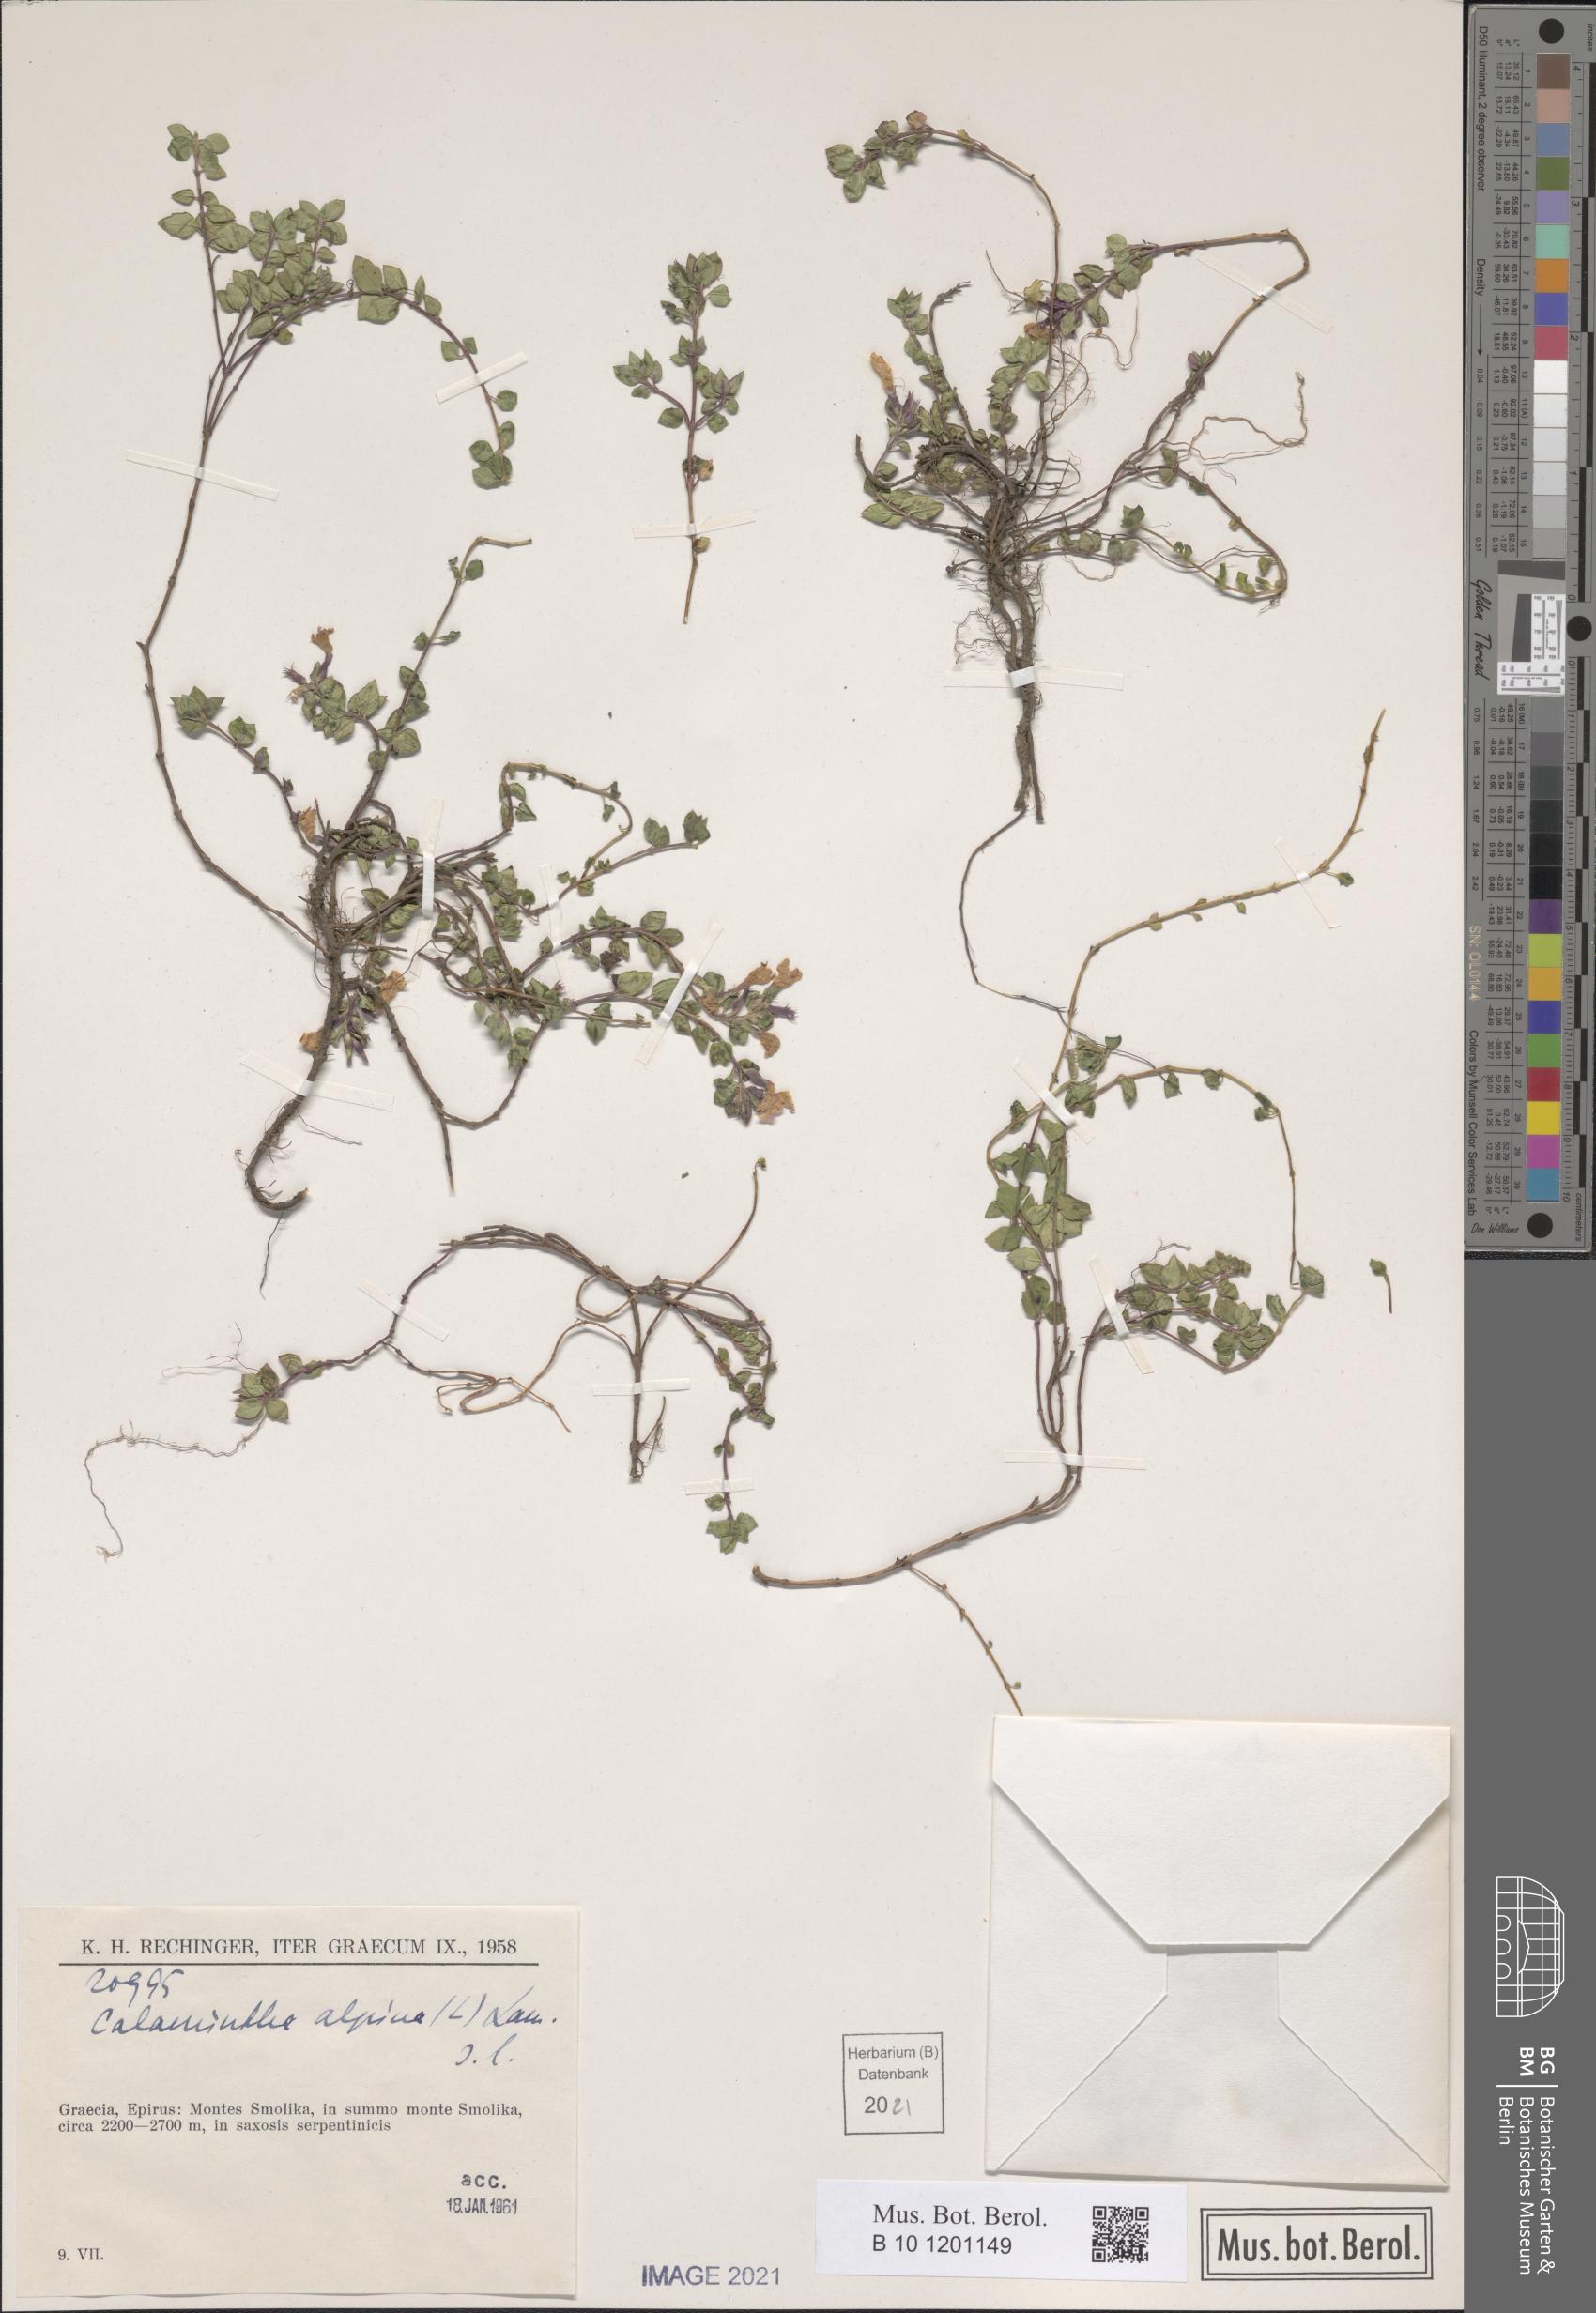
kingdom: Plantae
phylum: Tracheophyta
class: Magnoliopsida
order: Lamiales
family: Lamiaceae
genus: Clinopodium
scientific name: Clinopodium alpinum
